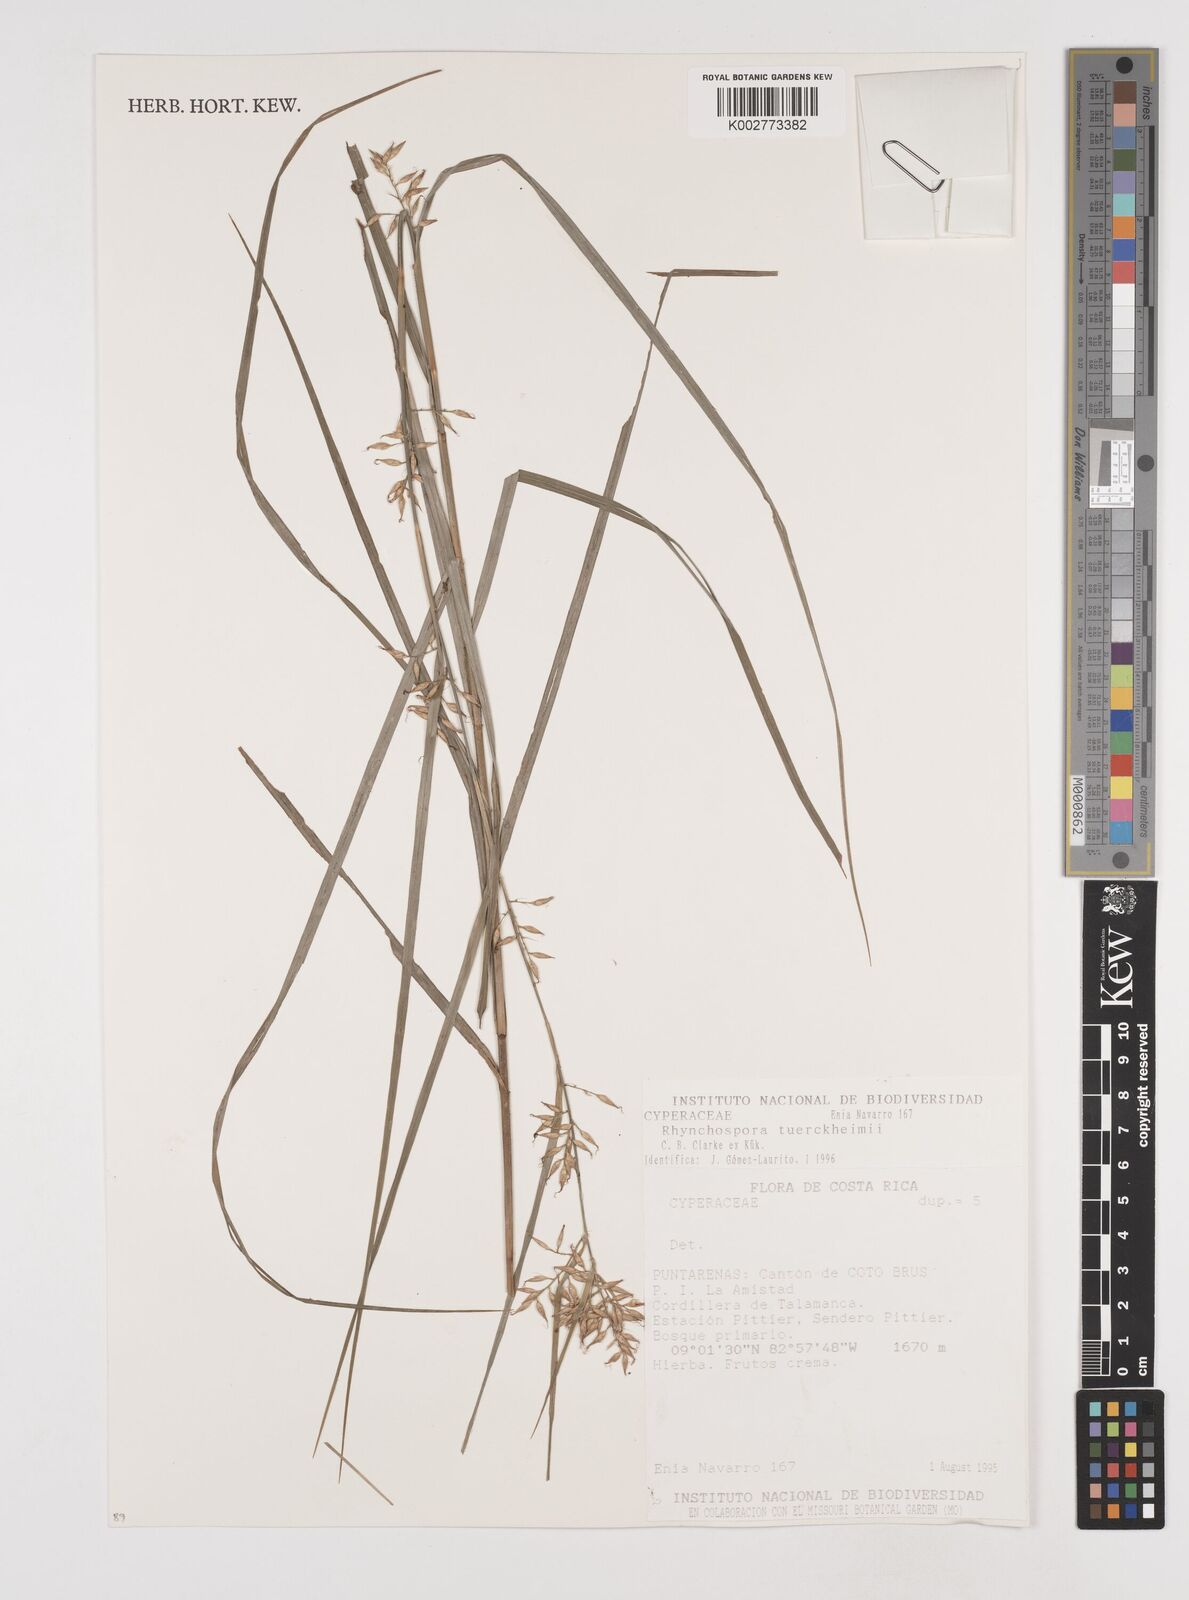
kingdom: Plantae
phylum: Tracheophyta
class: Liliopsida
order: Poales
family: Cyperaceae
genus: Rhynchospora
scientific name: Rhynchospora tuerckheimii
